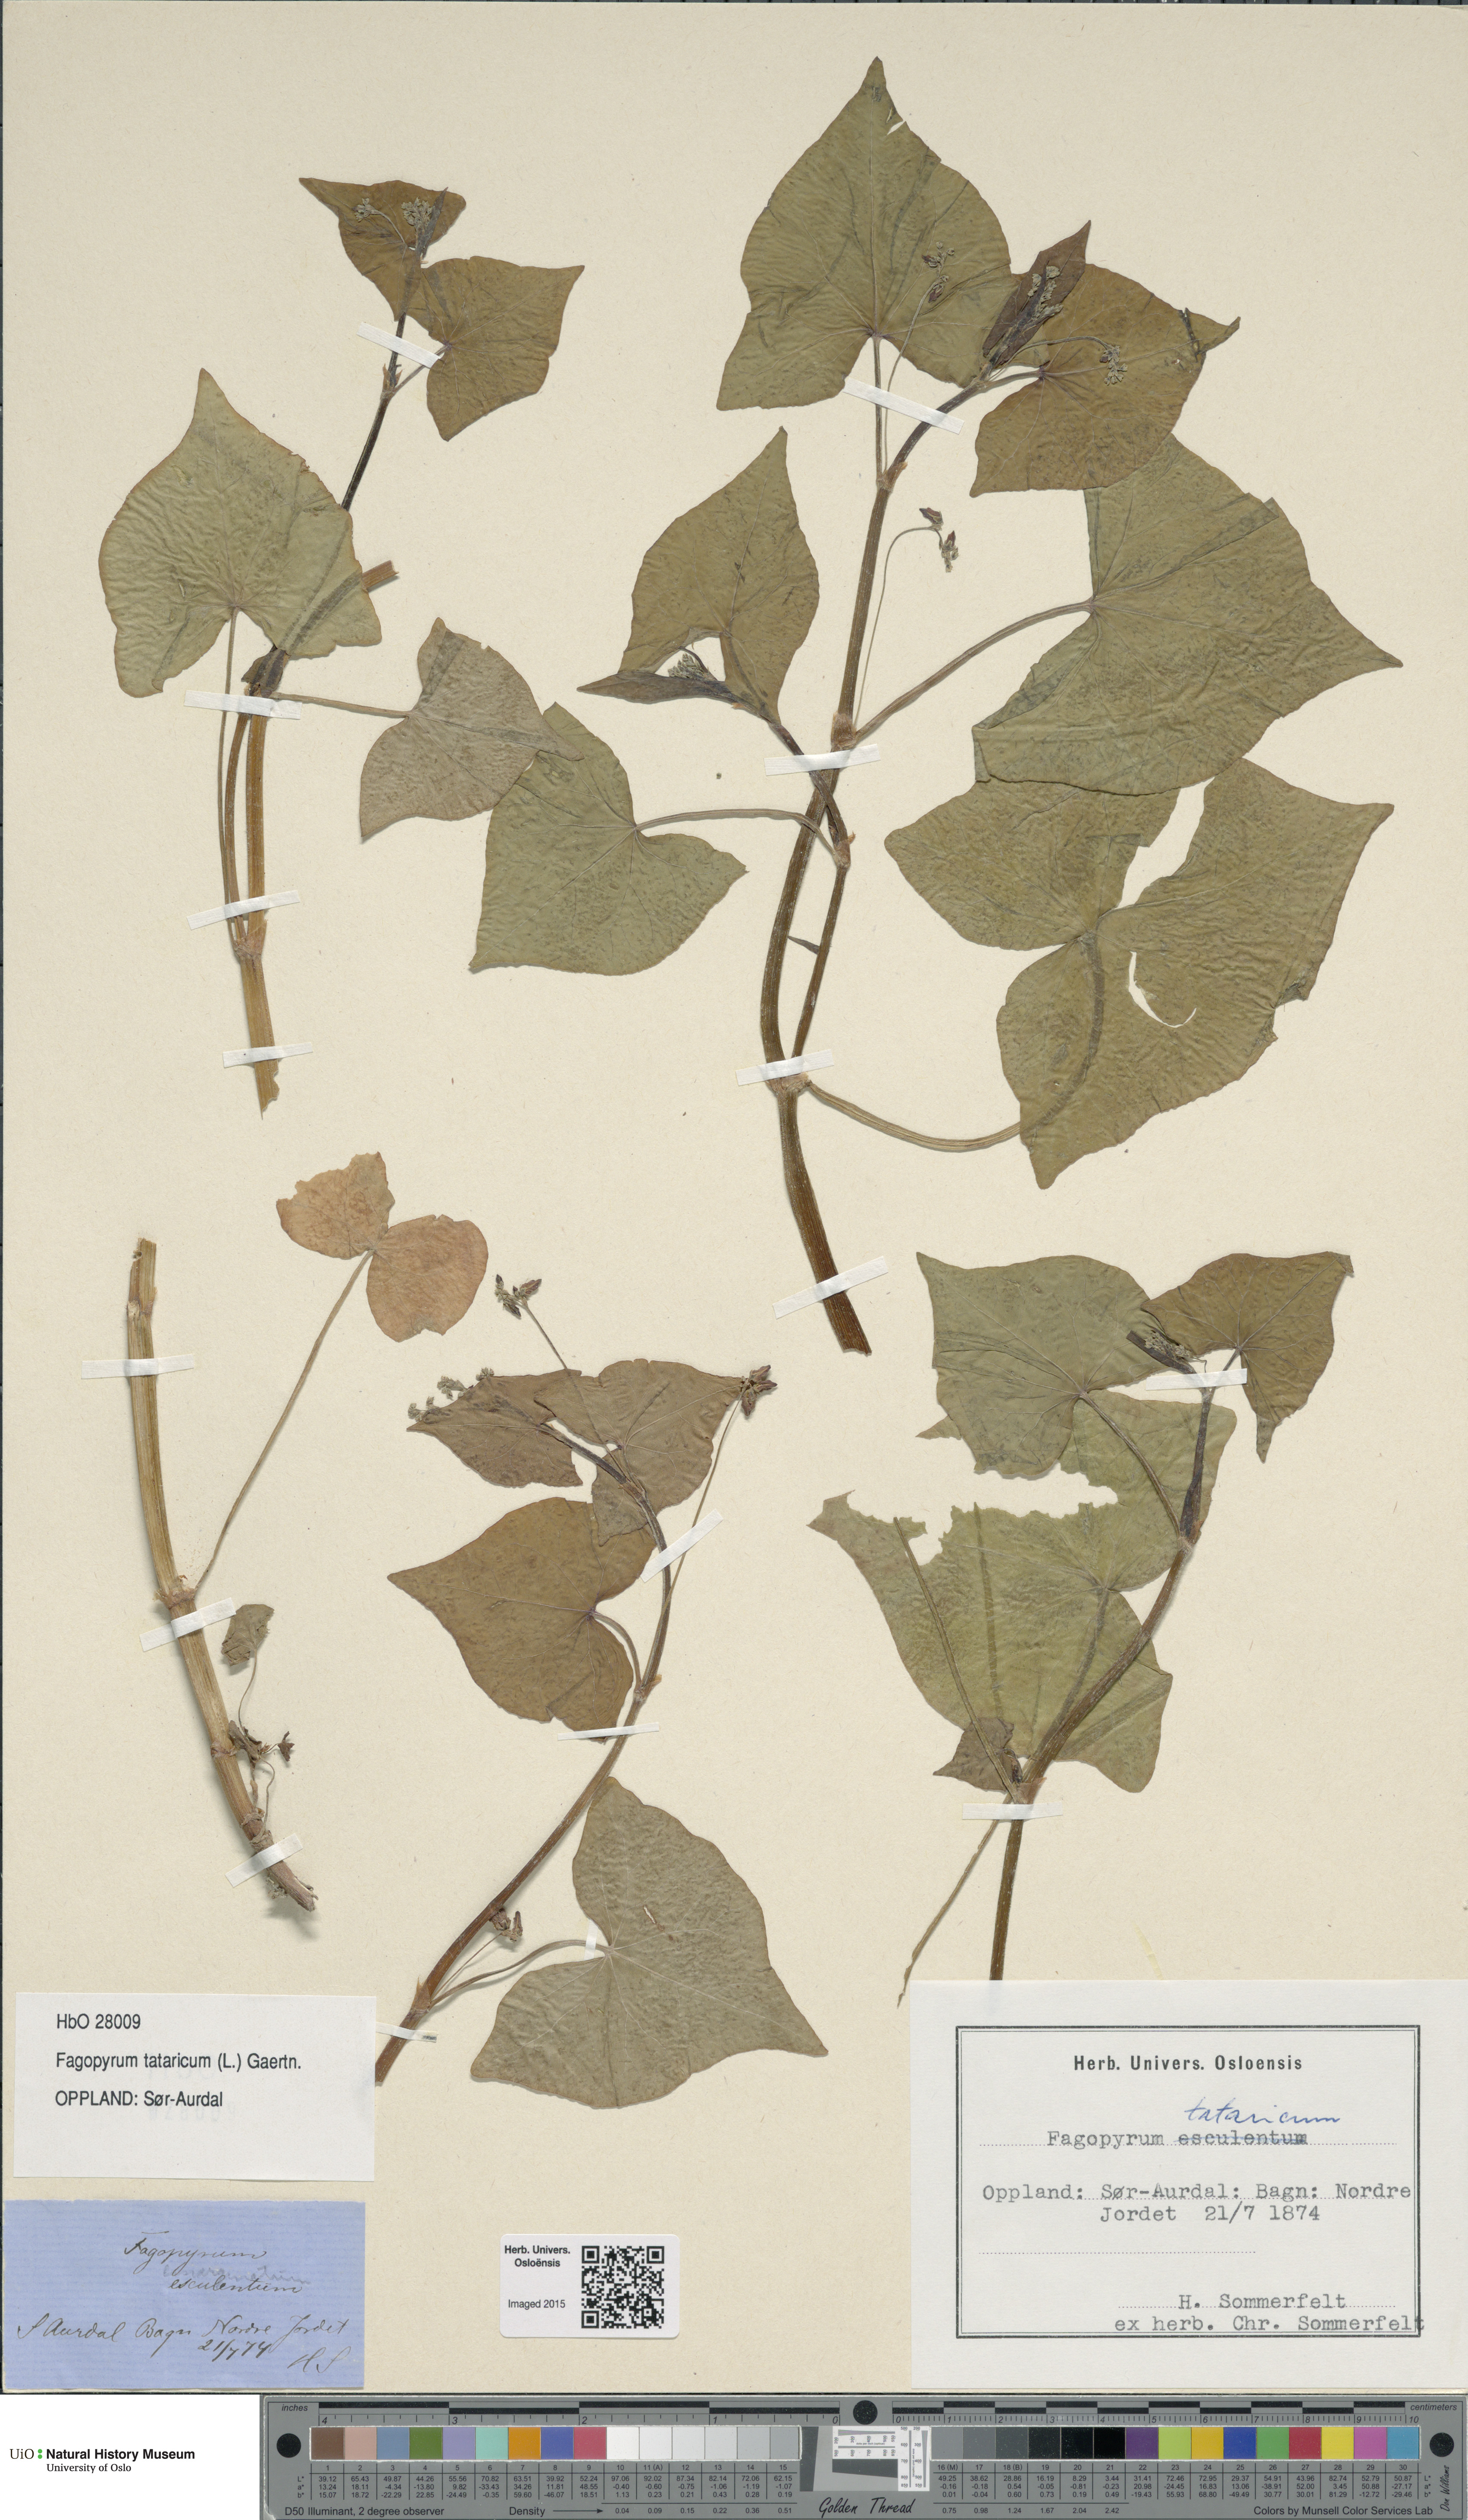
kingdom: Plantae
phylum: Tracheophyta
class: Magnoliopsida
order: Caryophyllales
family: Polygonaceae
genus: Fagopyrum
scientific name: Fagopyrum tataricum
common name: Green buckwheat
